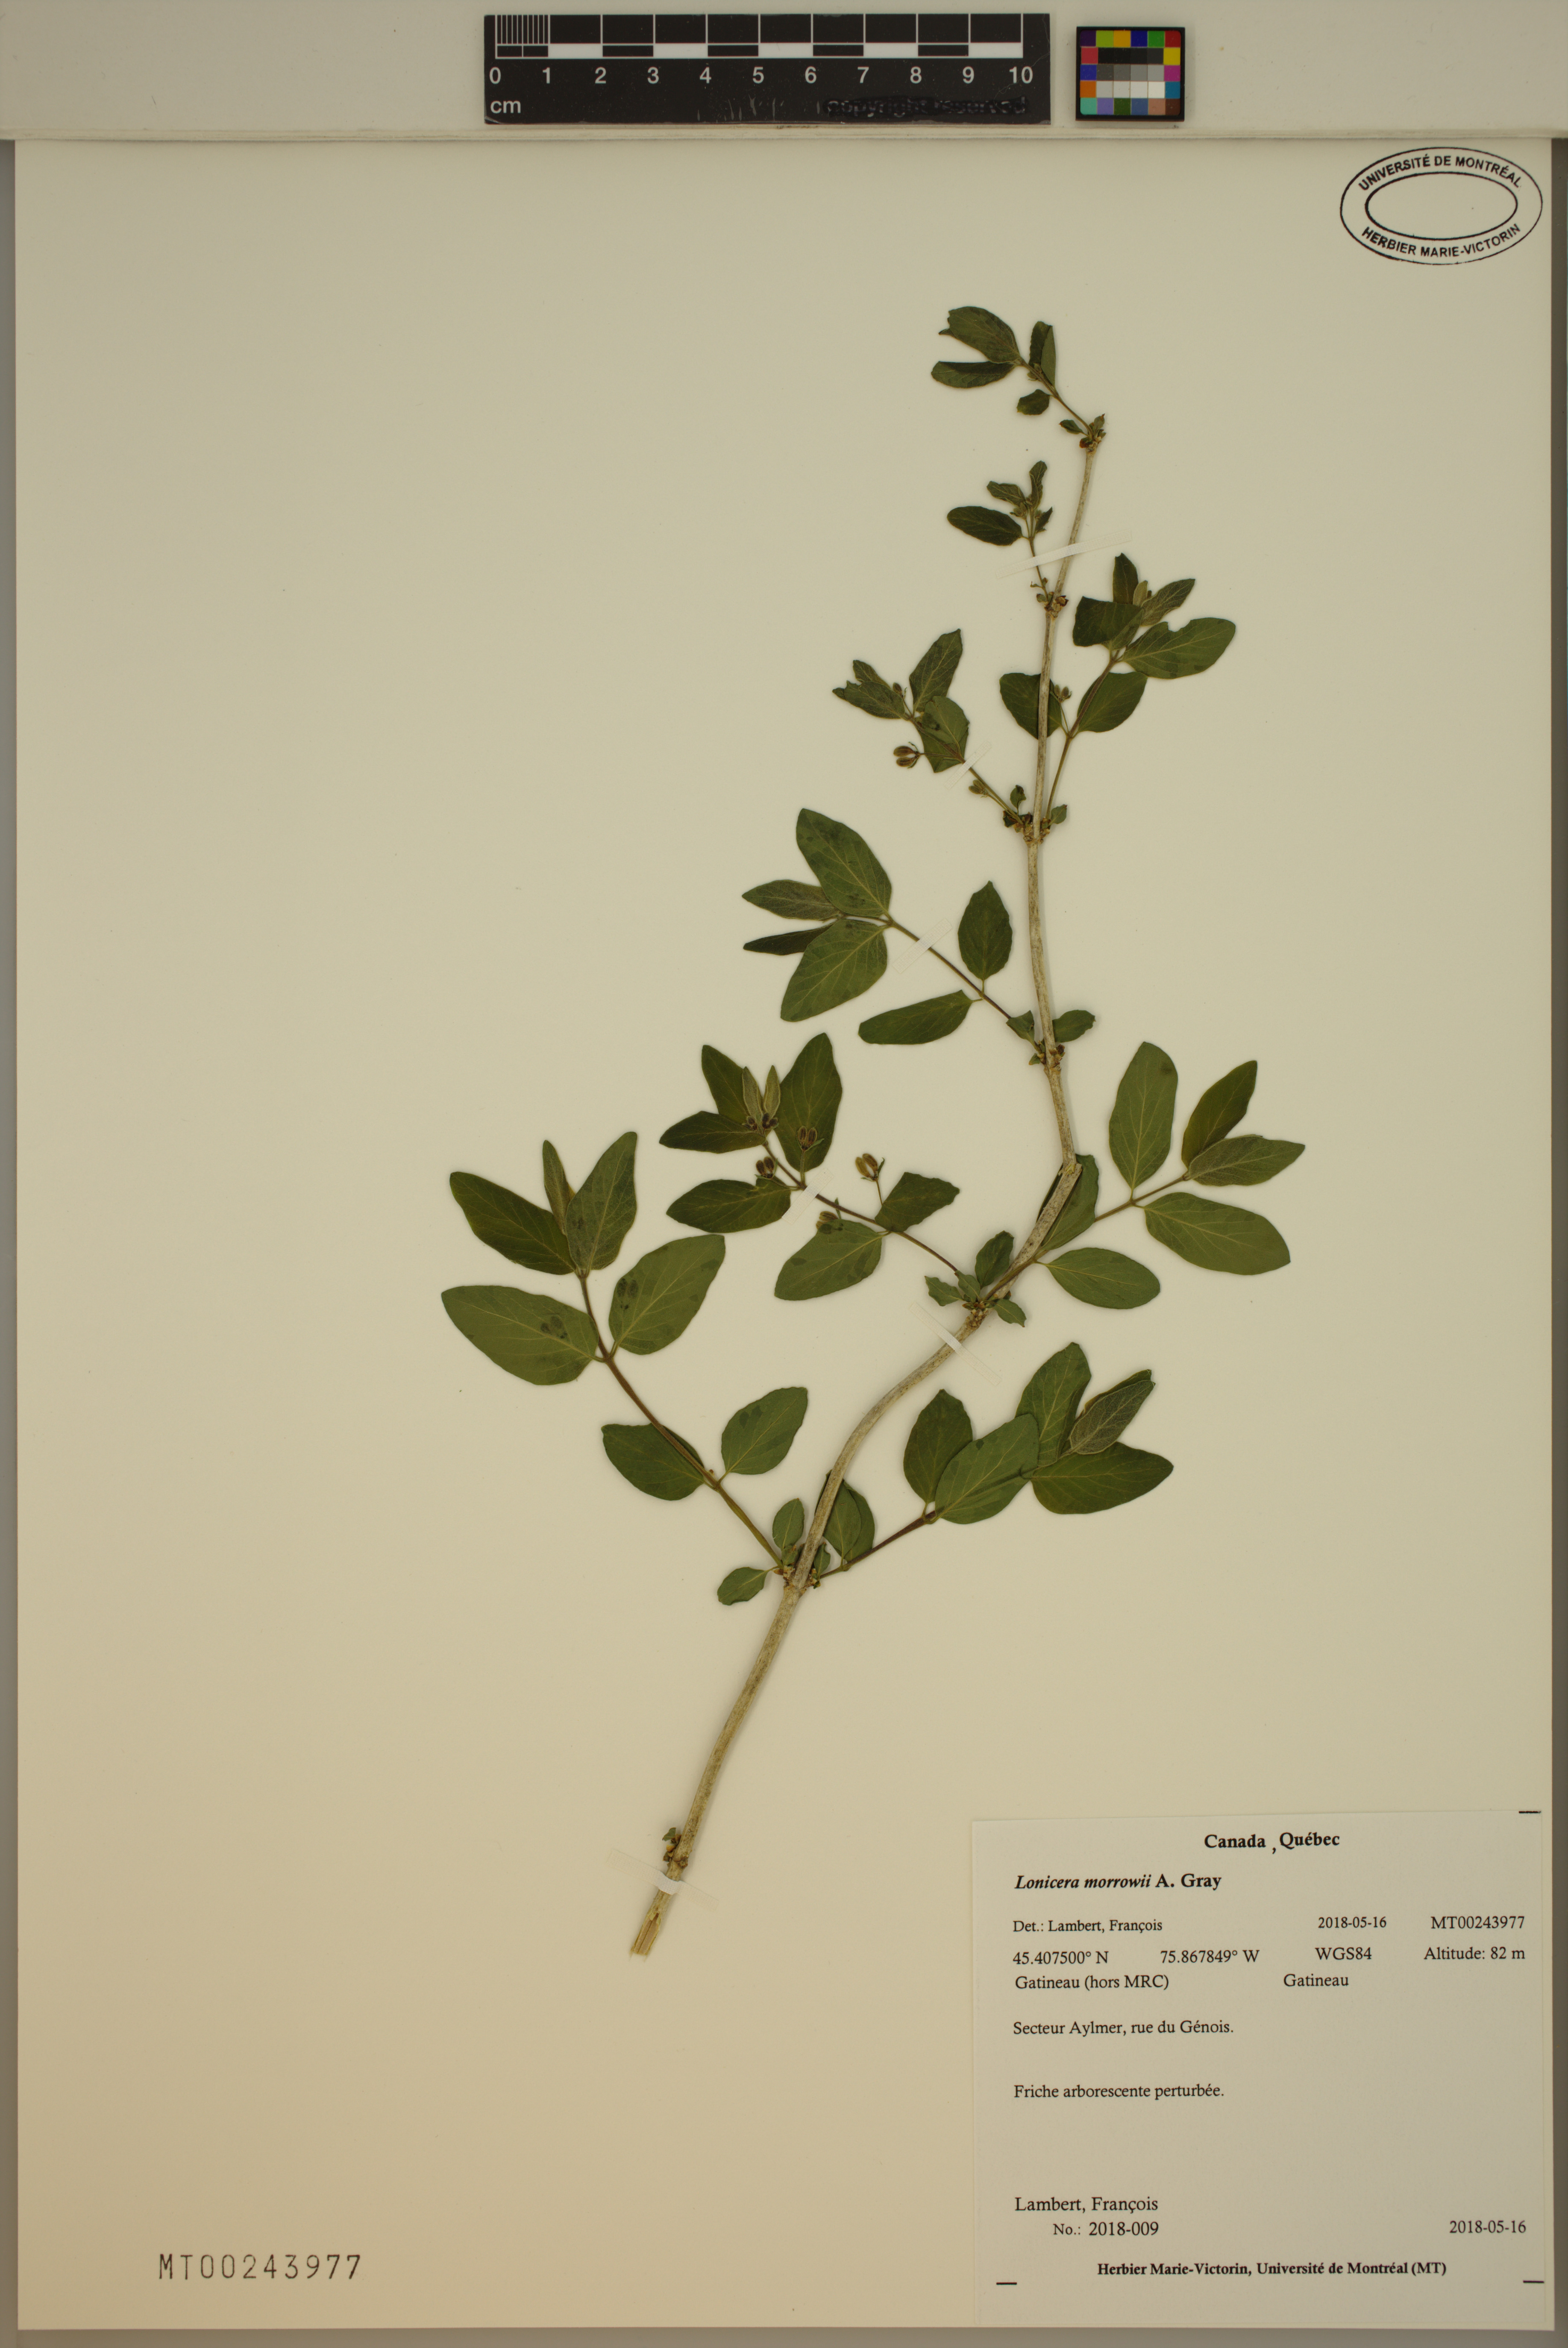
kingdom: Plantae
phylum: Tracheophyta
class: Magnoliopsida
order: Dipsacales
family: Caprifoliaceae
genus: Lonicera
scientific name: Lonicera morrowii
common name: Morrow's honeysuckle
